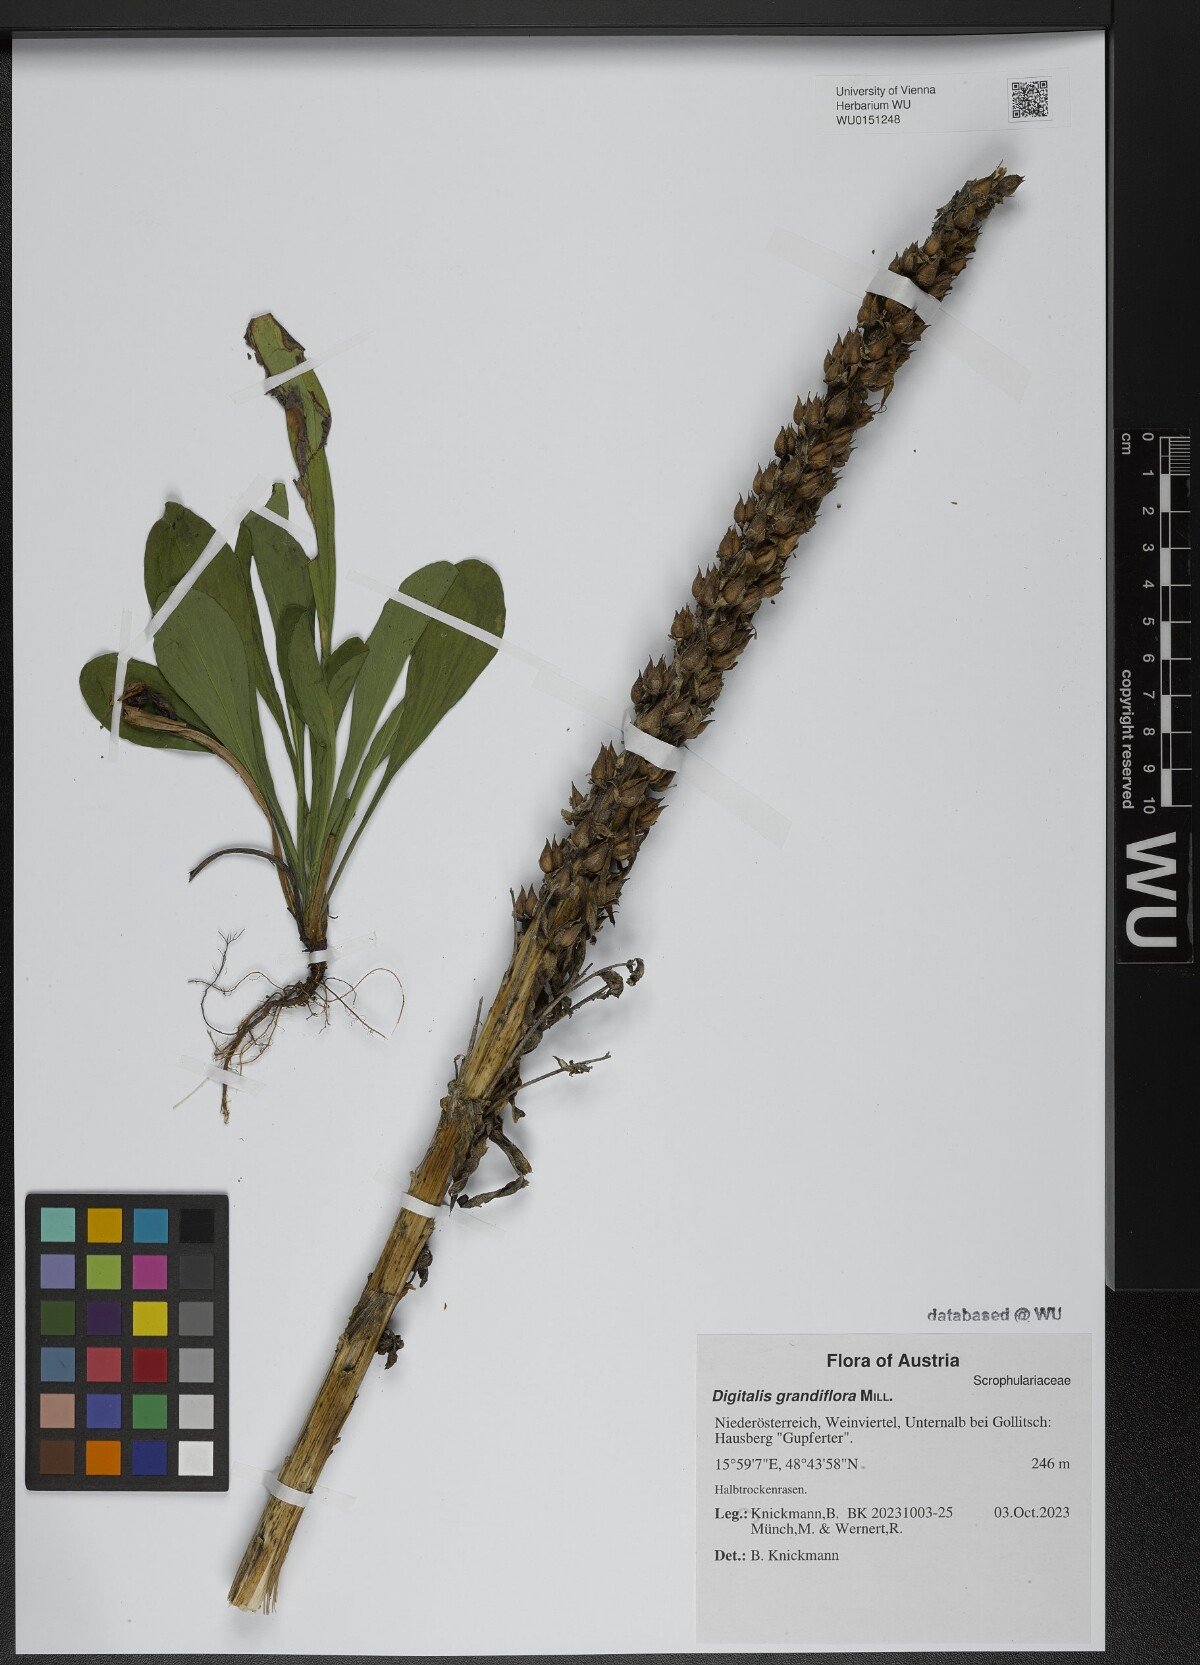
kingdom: Plantae
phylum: Tracheophyta
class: Magnoliopsida
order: Lamiales
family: Plantaginaceae
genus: Digitalis
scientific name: Digitalis grandiflora
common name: Yellow foxglove
